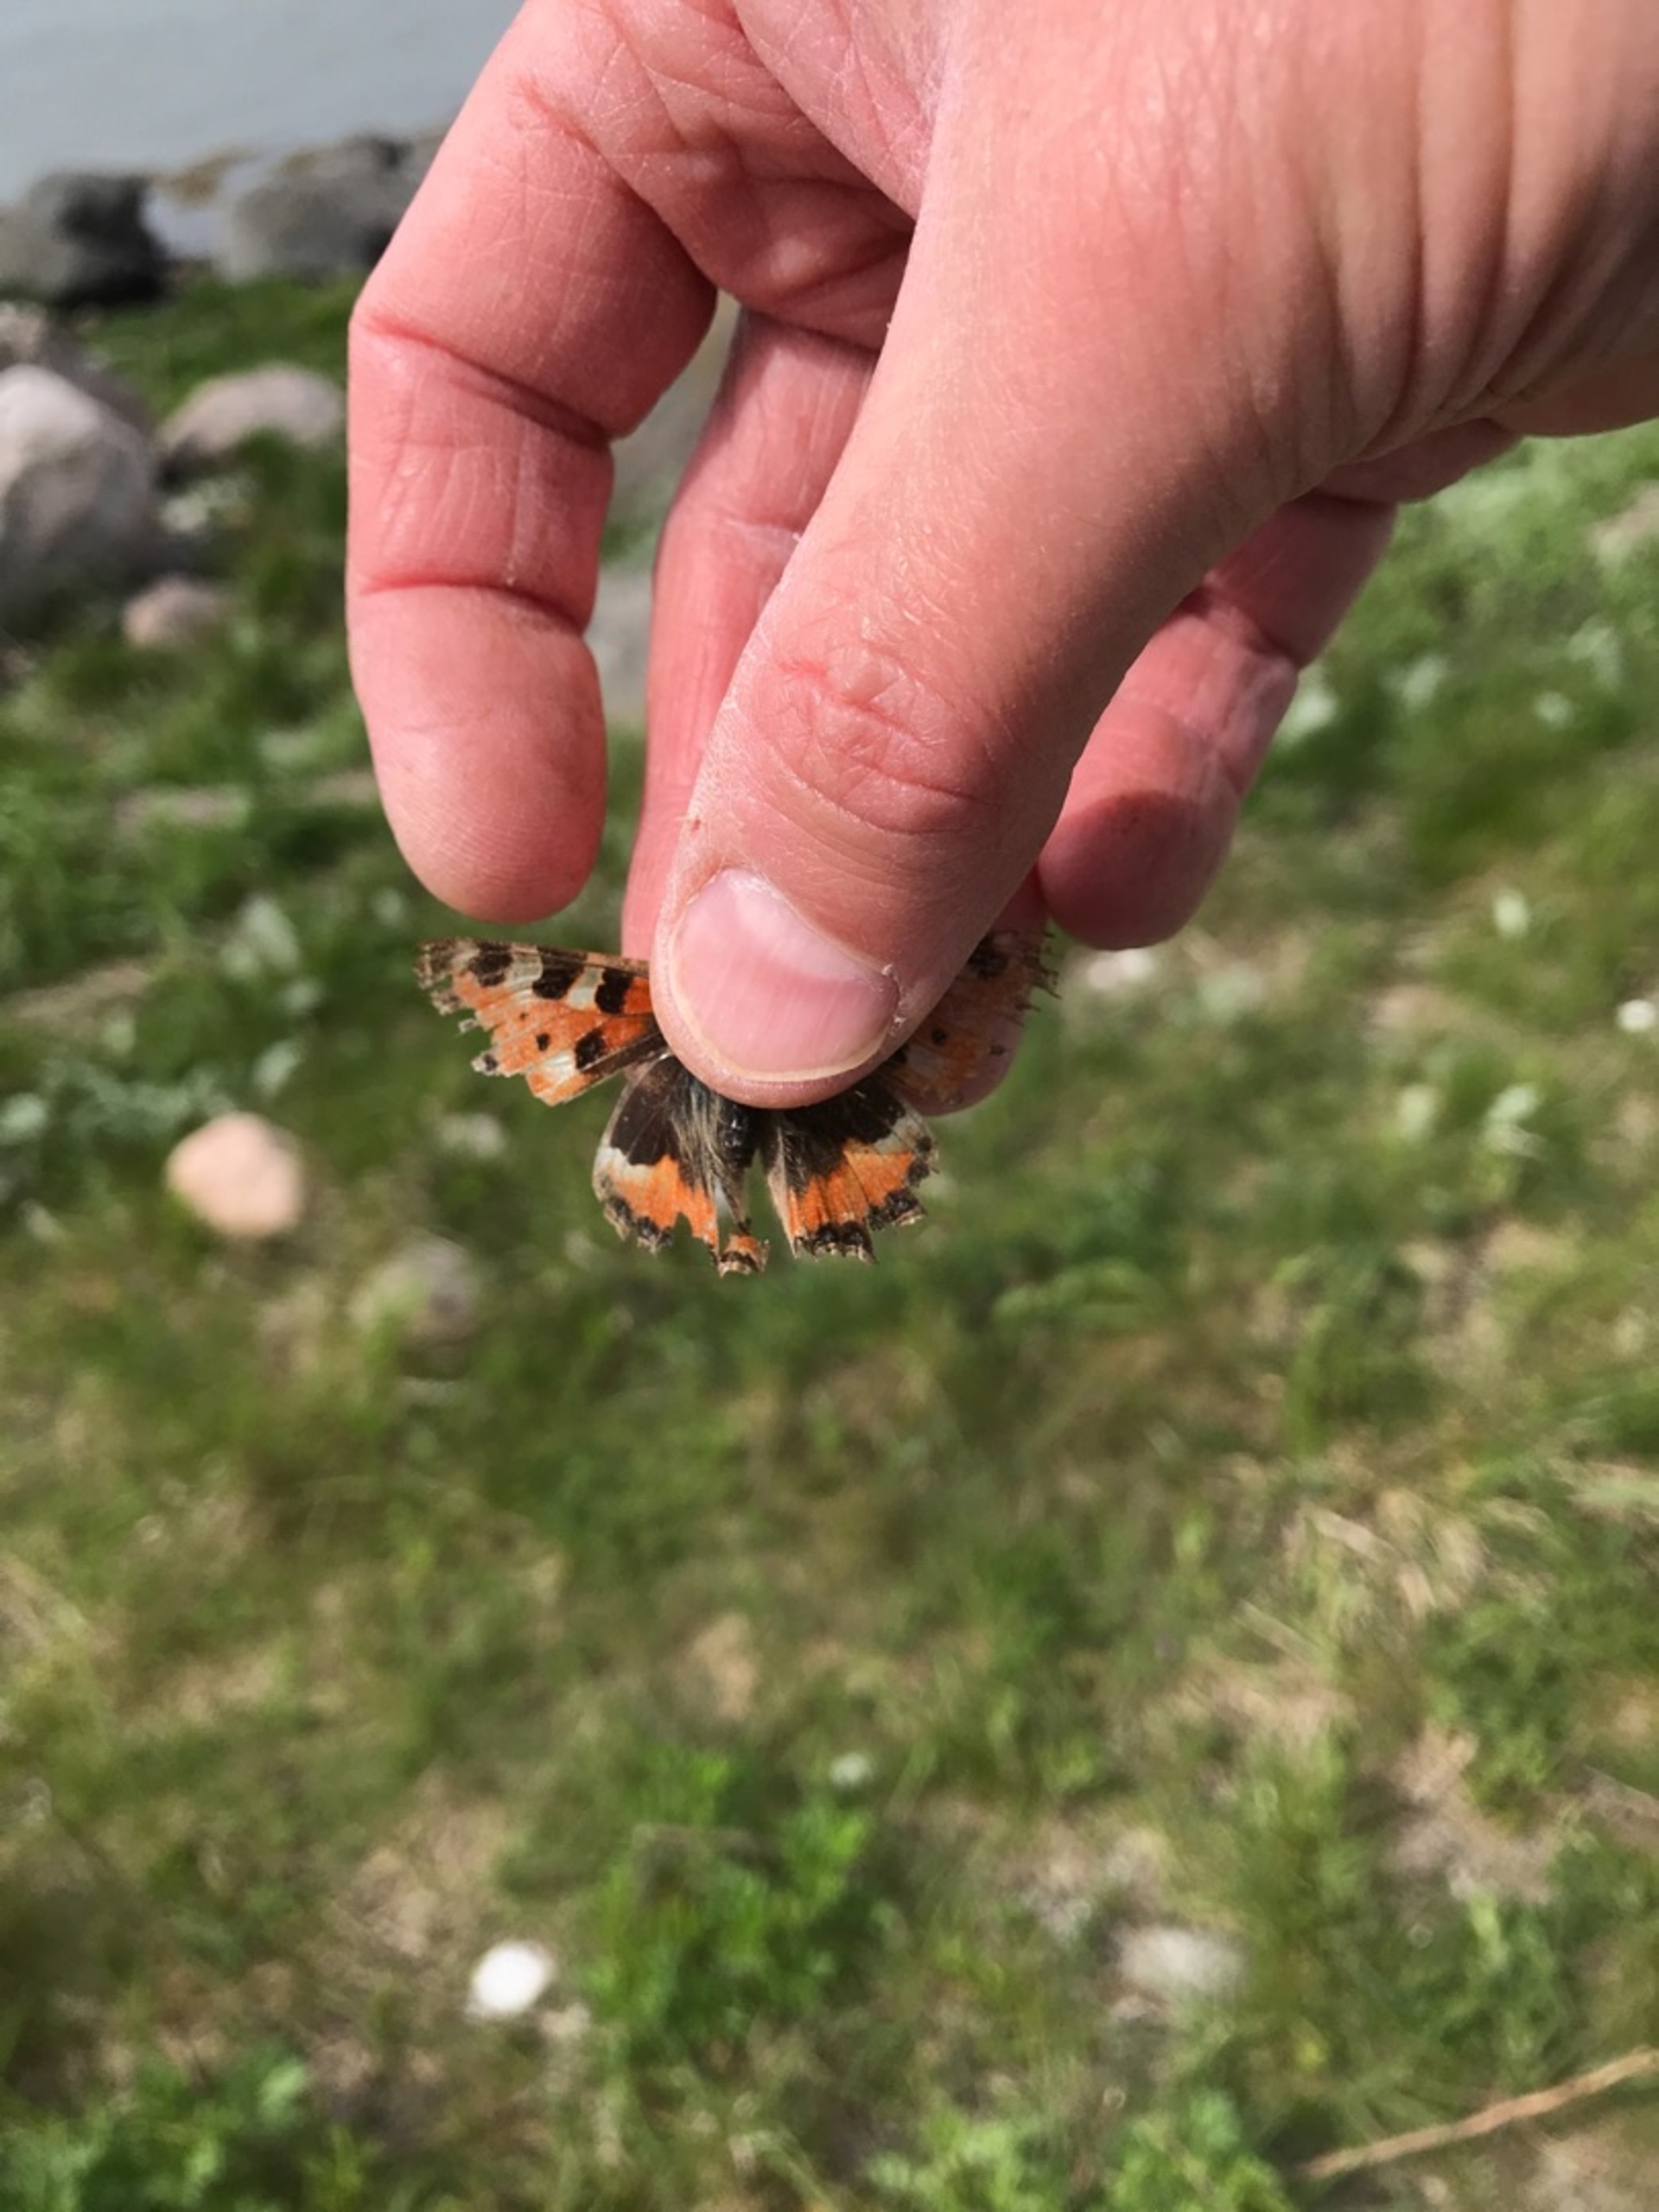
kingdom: Animalia
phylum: Arthropoda
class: Insecta
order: Lepidoptera
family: Nymphalidae
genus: Aglais
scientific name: Aglais urticae
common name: Nældens takvinge
